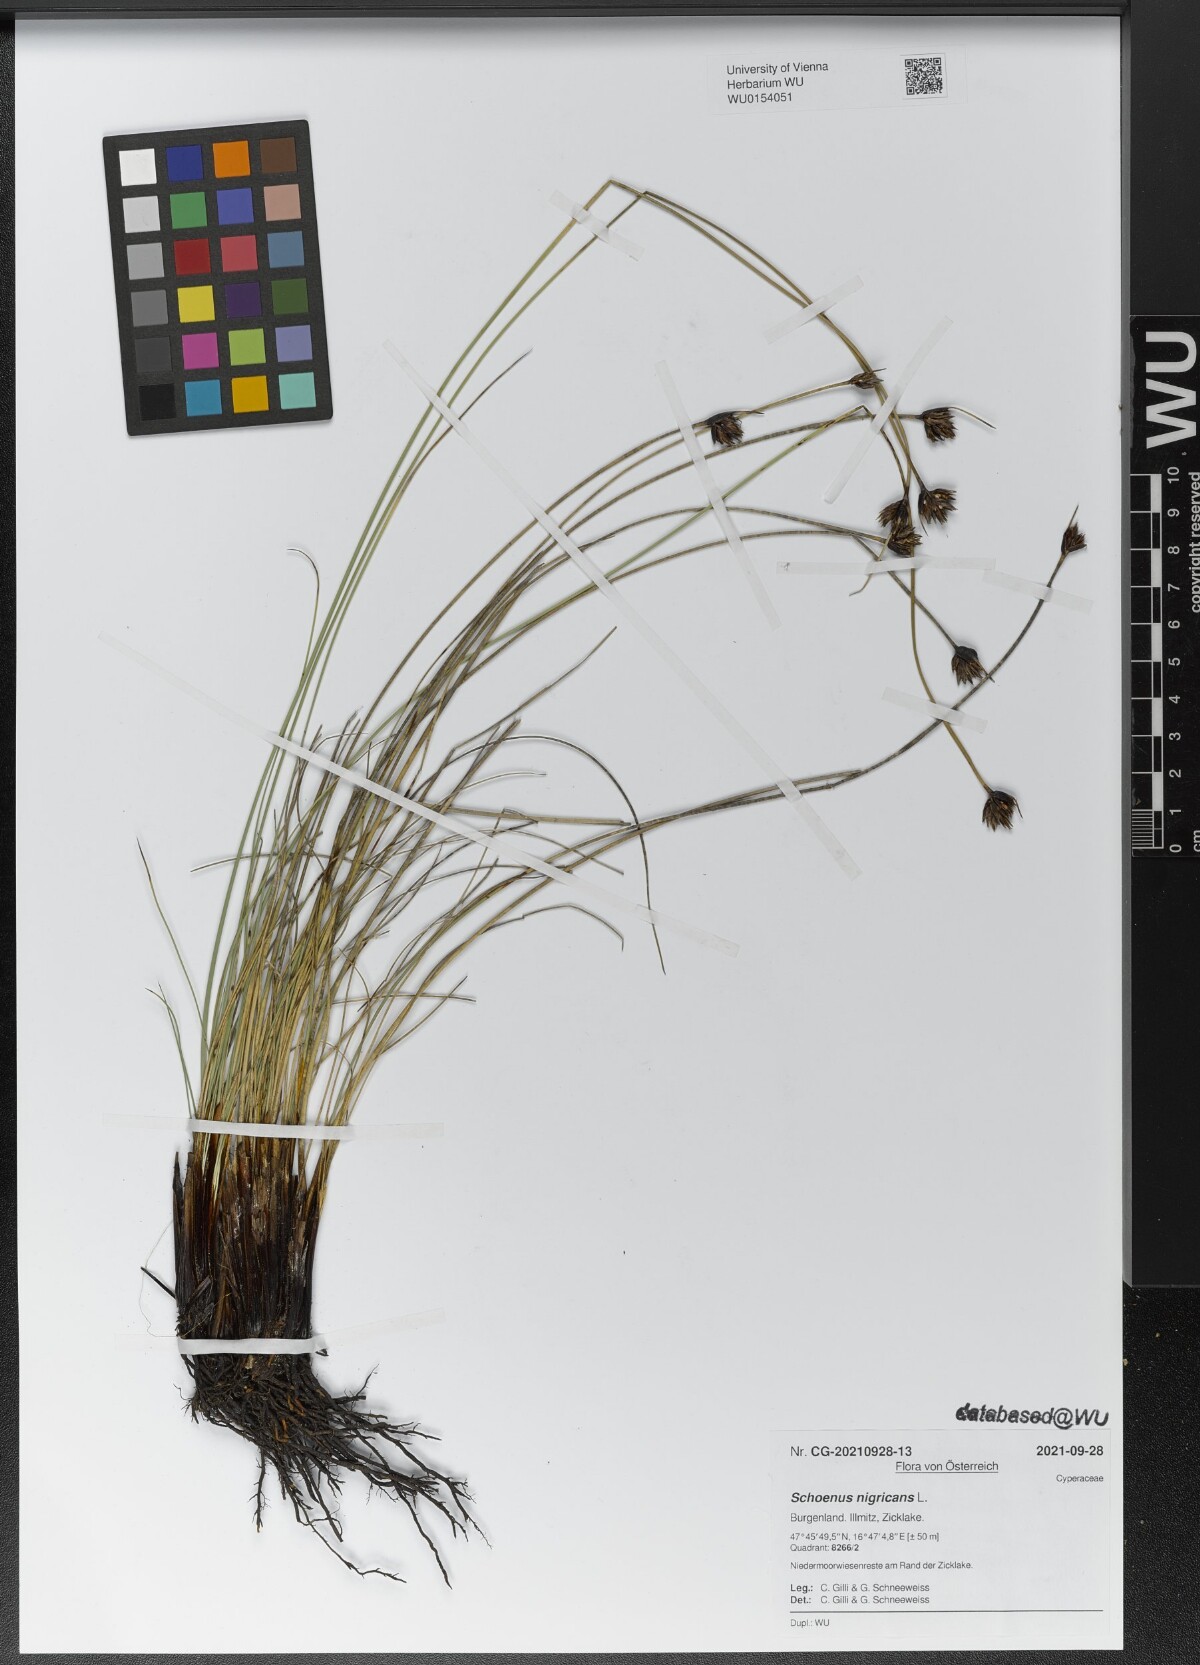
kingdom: Plantae
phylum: Tracheophyta
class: Liliopsida
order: Poales
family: Cyperaceae
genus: Schoenus
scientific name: Schoenus nigricans
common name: Black bog-rush
